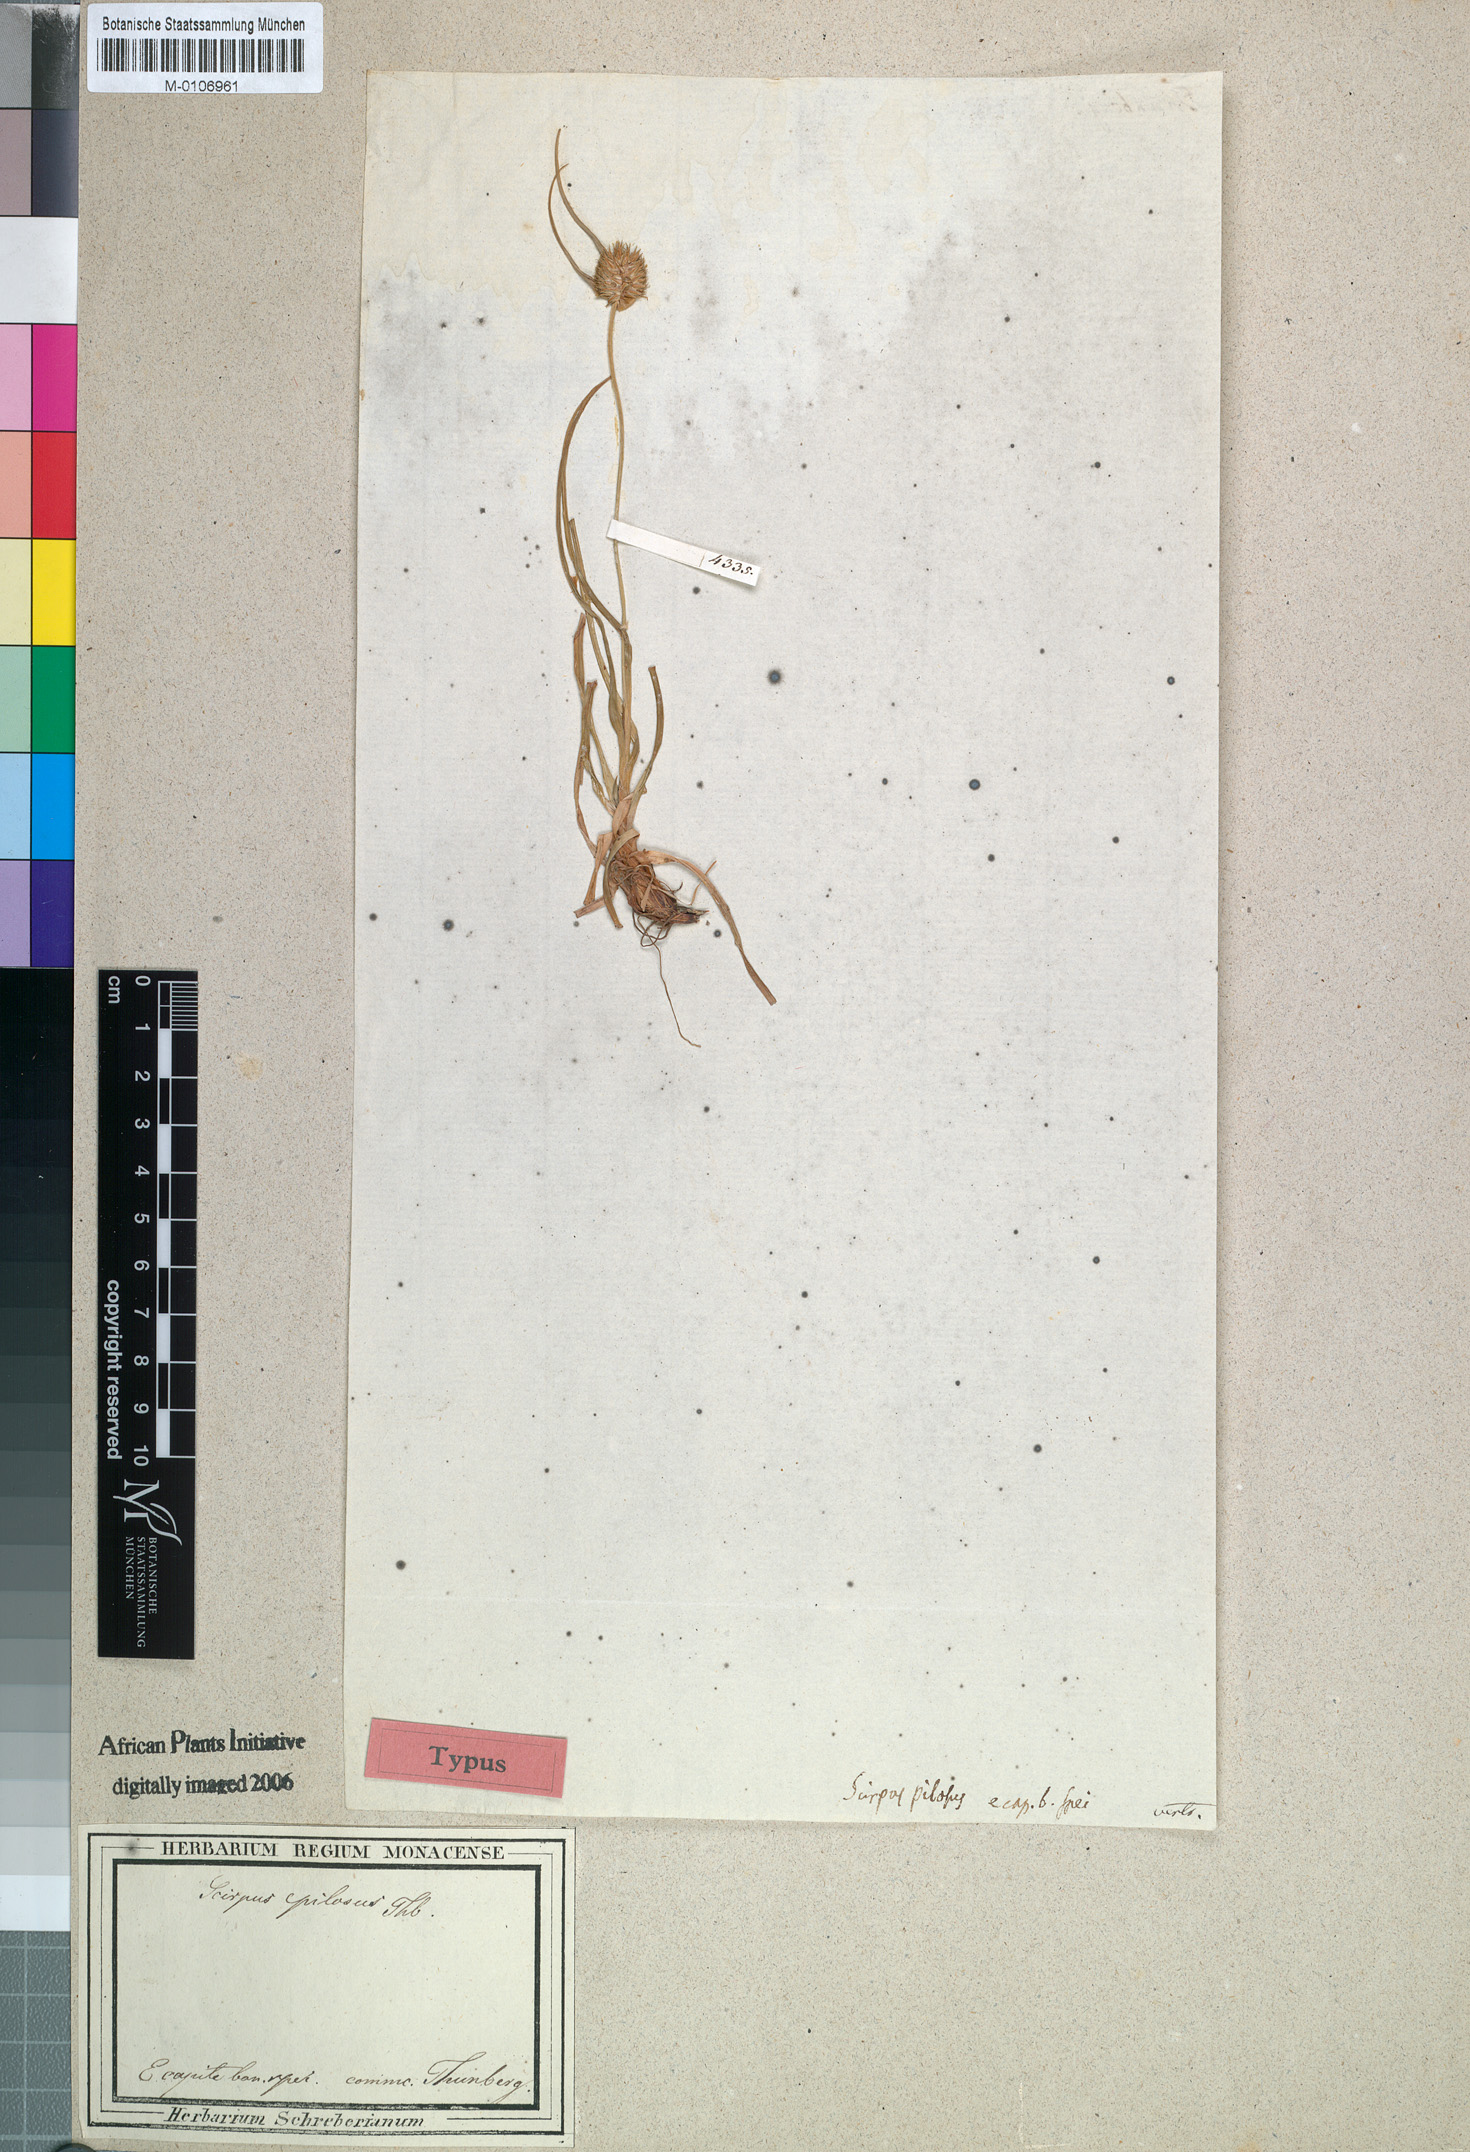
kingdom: Plantae
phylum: Tracheophyta
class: Liliopsida
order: Poales
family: Cyperaceae
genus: Scirpus
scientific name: Scirpus pilosus
